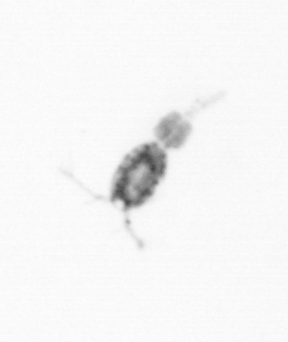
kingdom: Animalia
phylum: Arthropoda
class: Copepoda
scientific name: Copepoda
